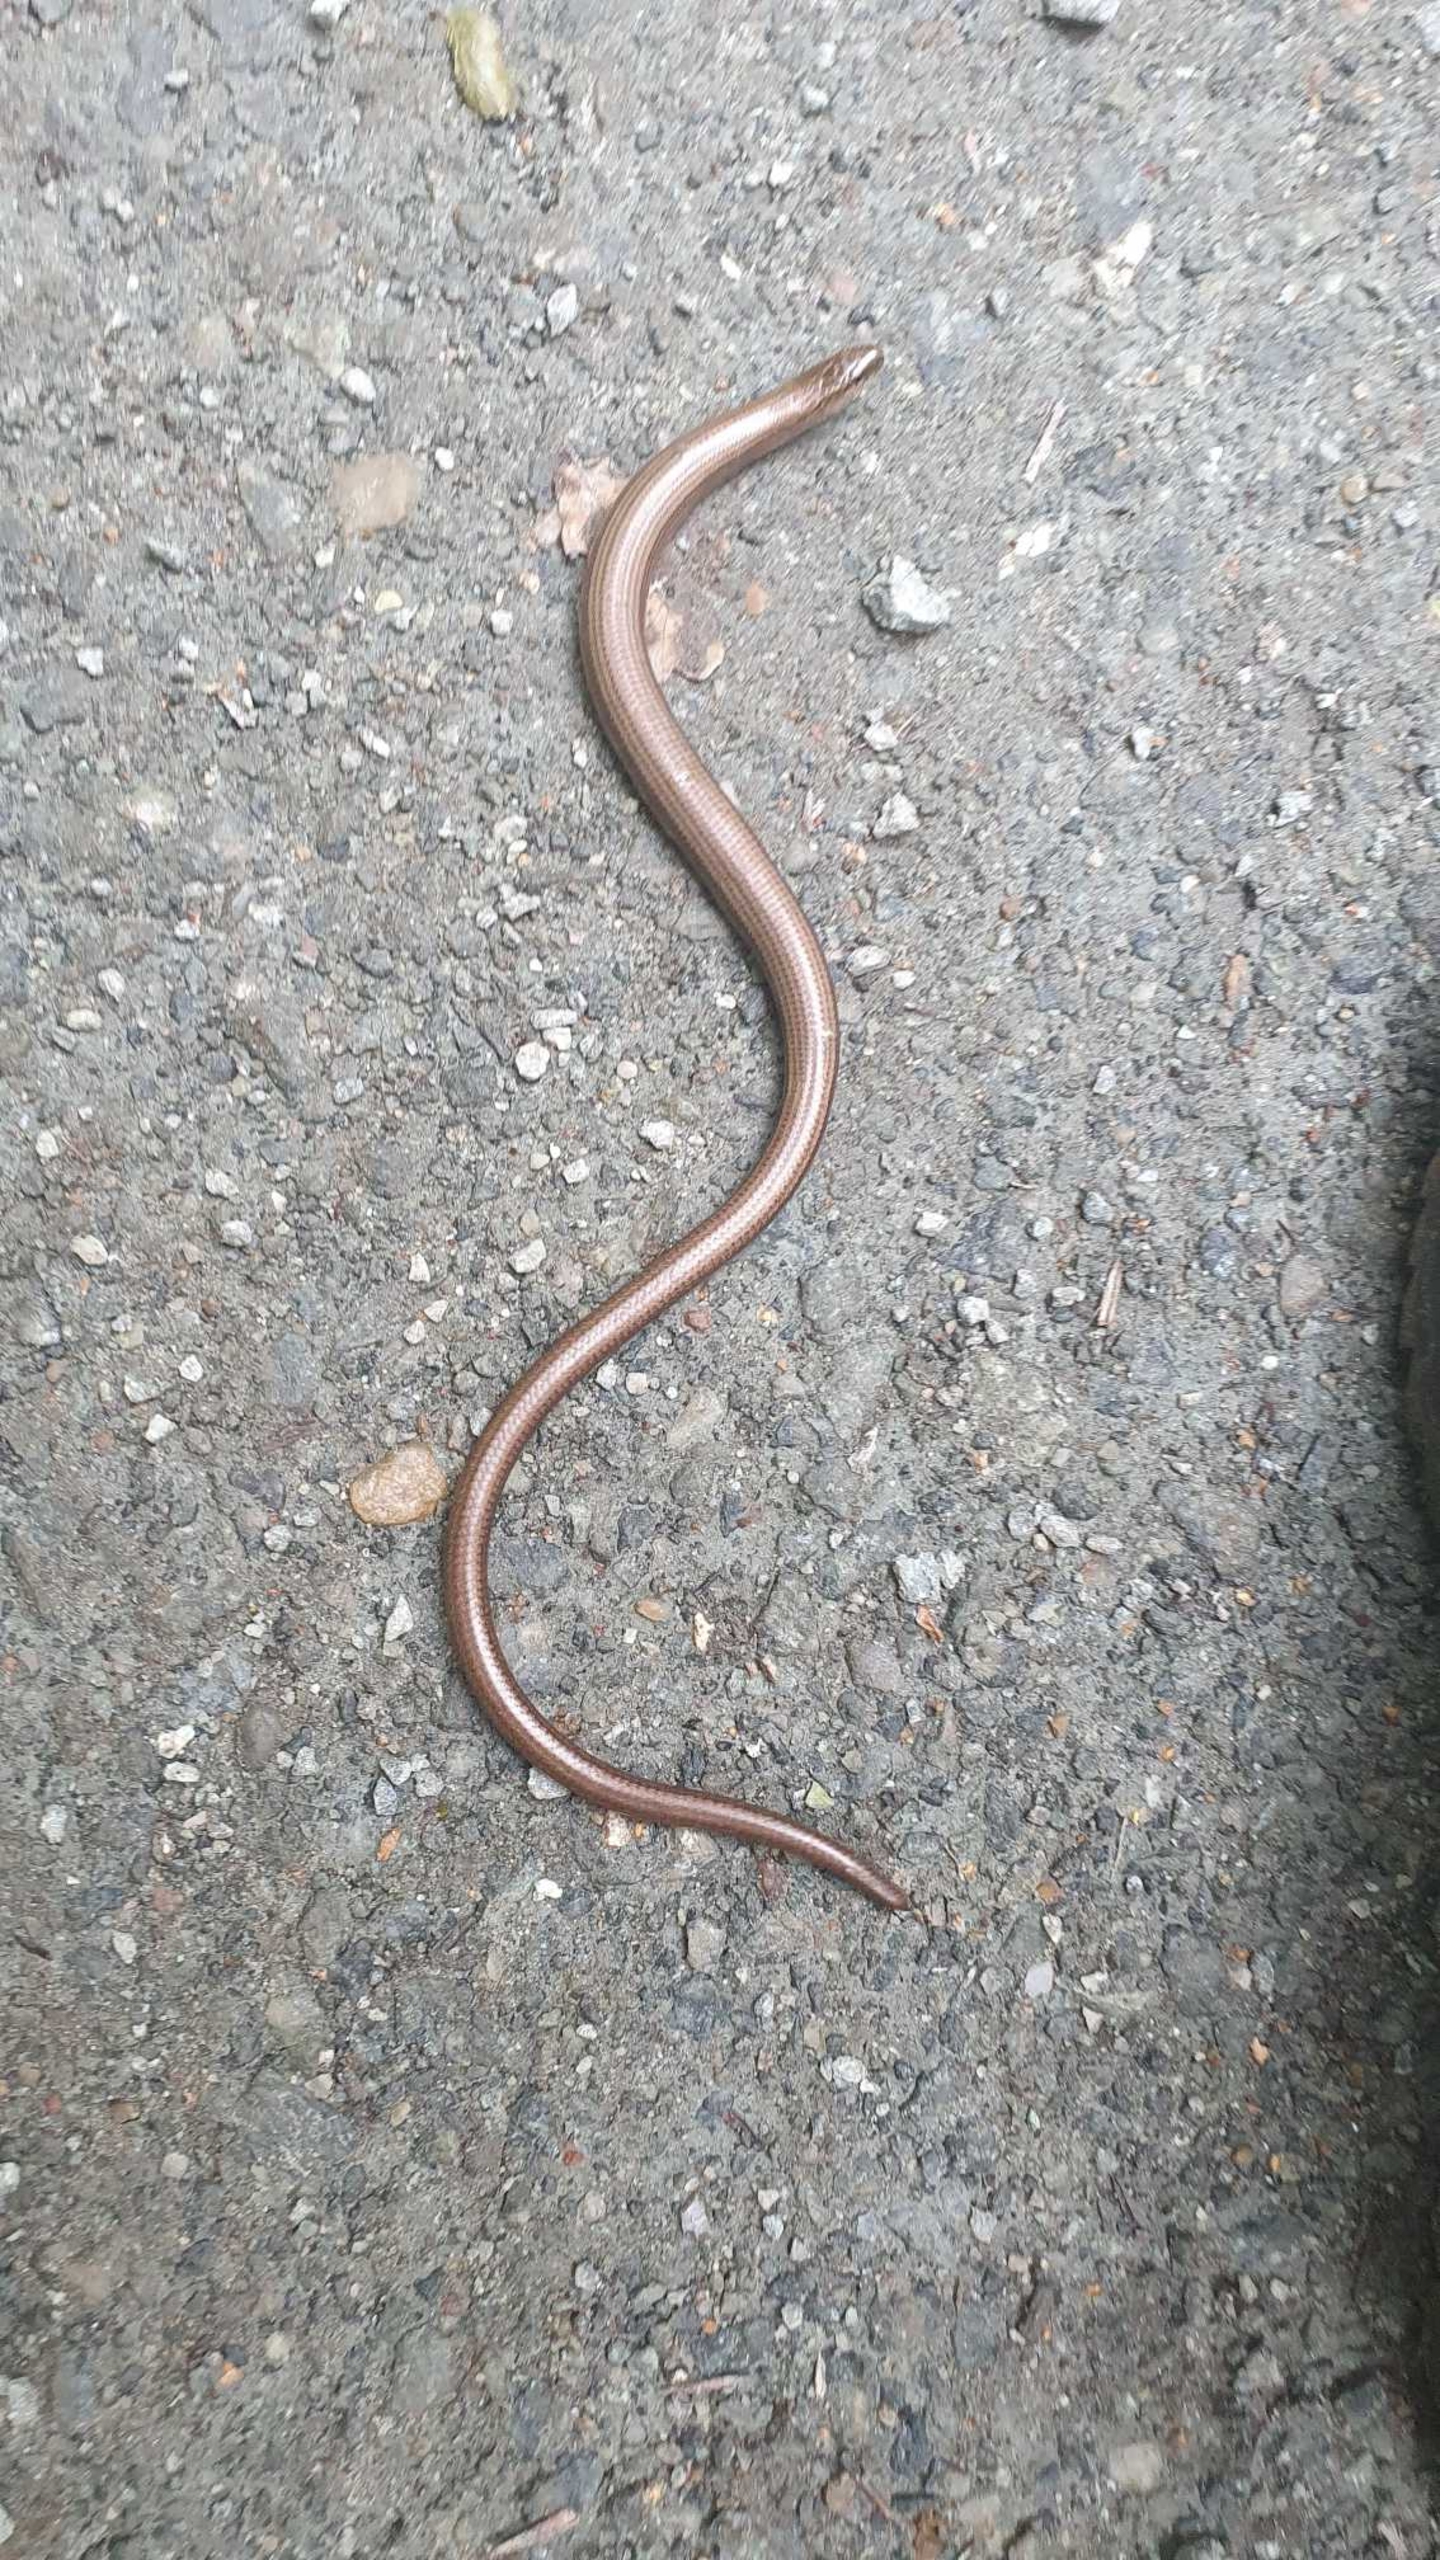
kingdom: Animalia
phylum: Chordata
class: Squamata
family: Anguidae
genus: Anguis
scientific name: Anguis fragilis
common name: Stålorm
